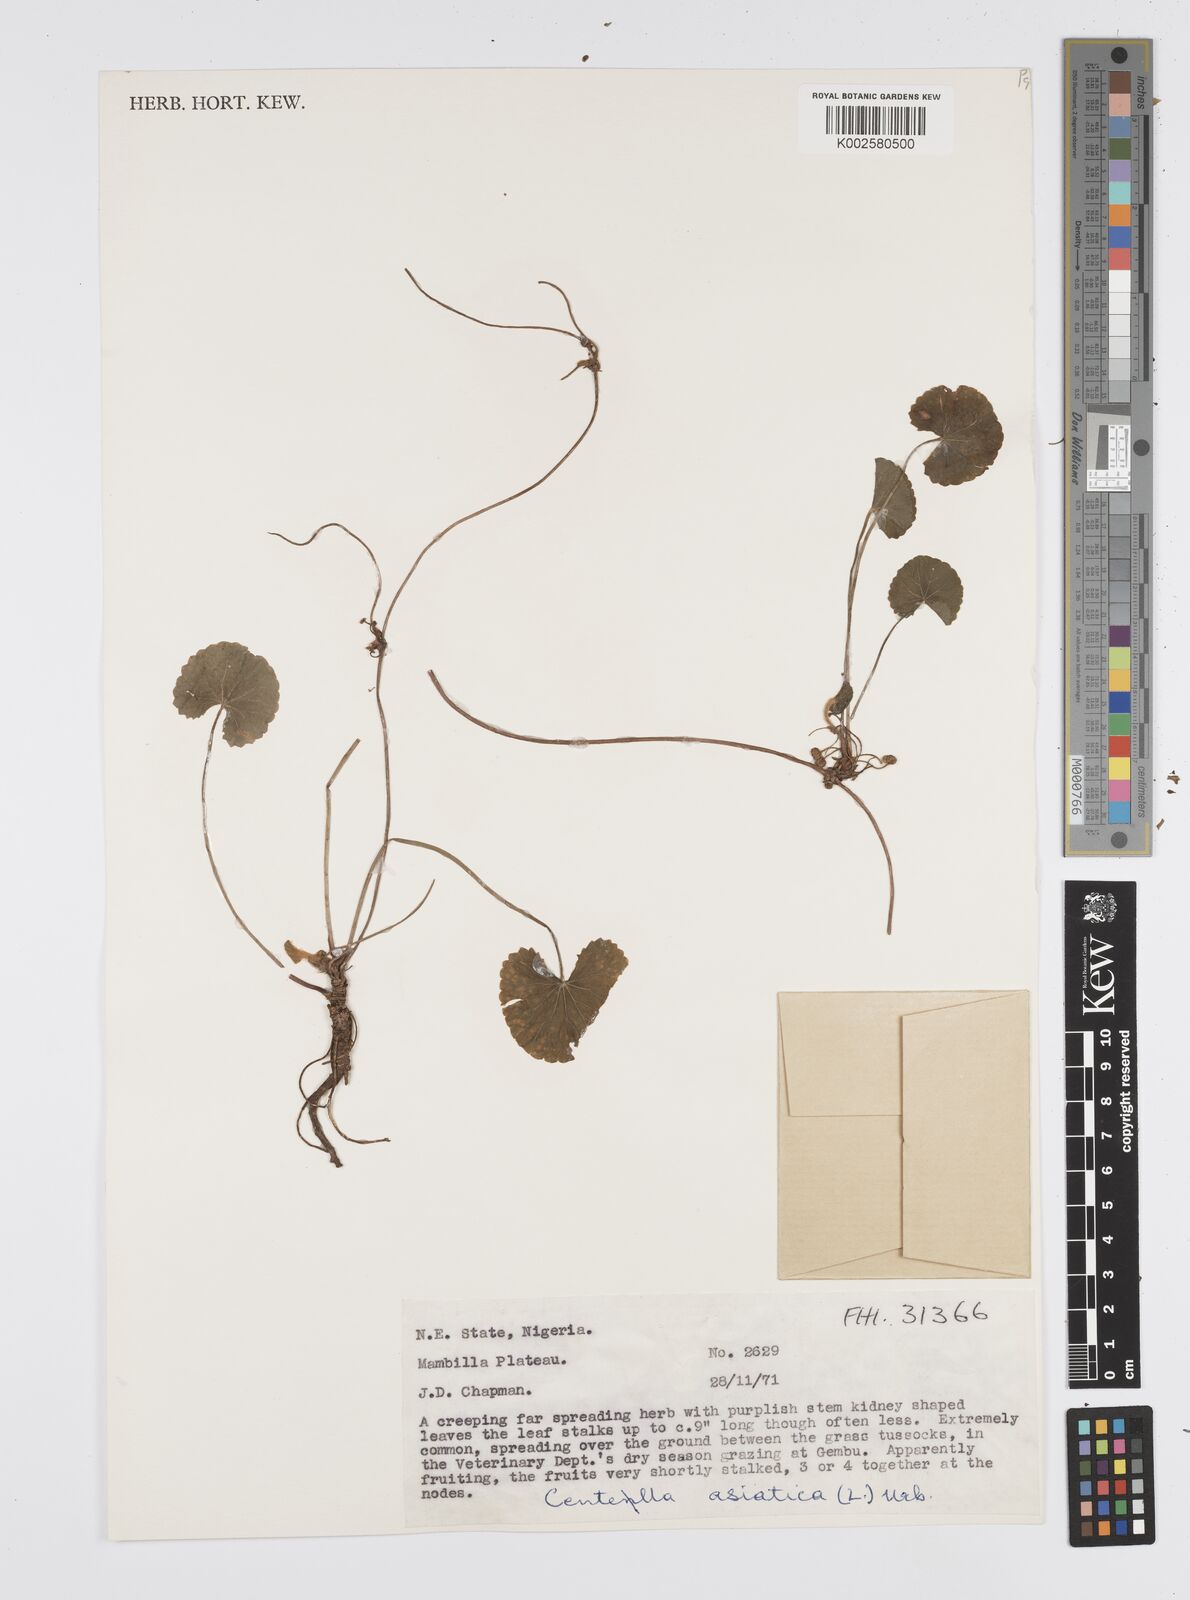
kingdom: Plantae
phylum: Tracheophyta
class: Magnoliopsida
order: Apiales
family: Apiaceae
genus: Centella
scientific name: Centella asiatica
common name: Spadeleaf
